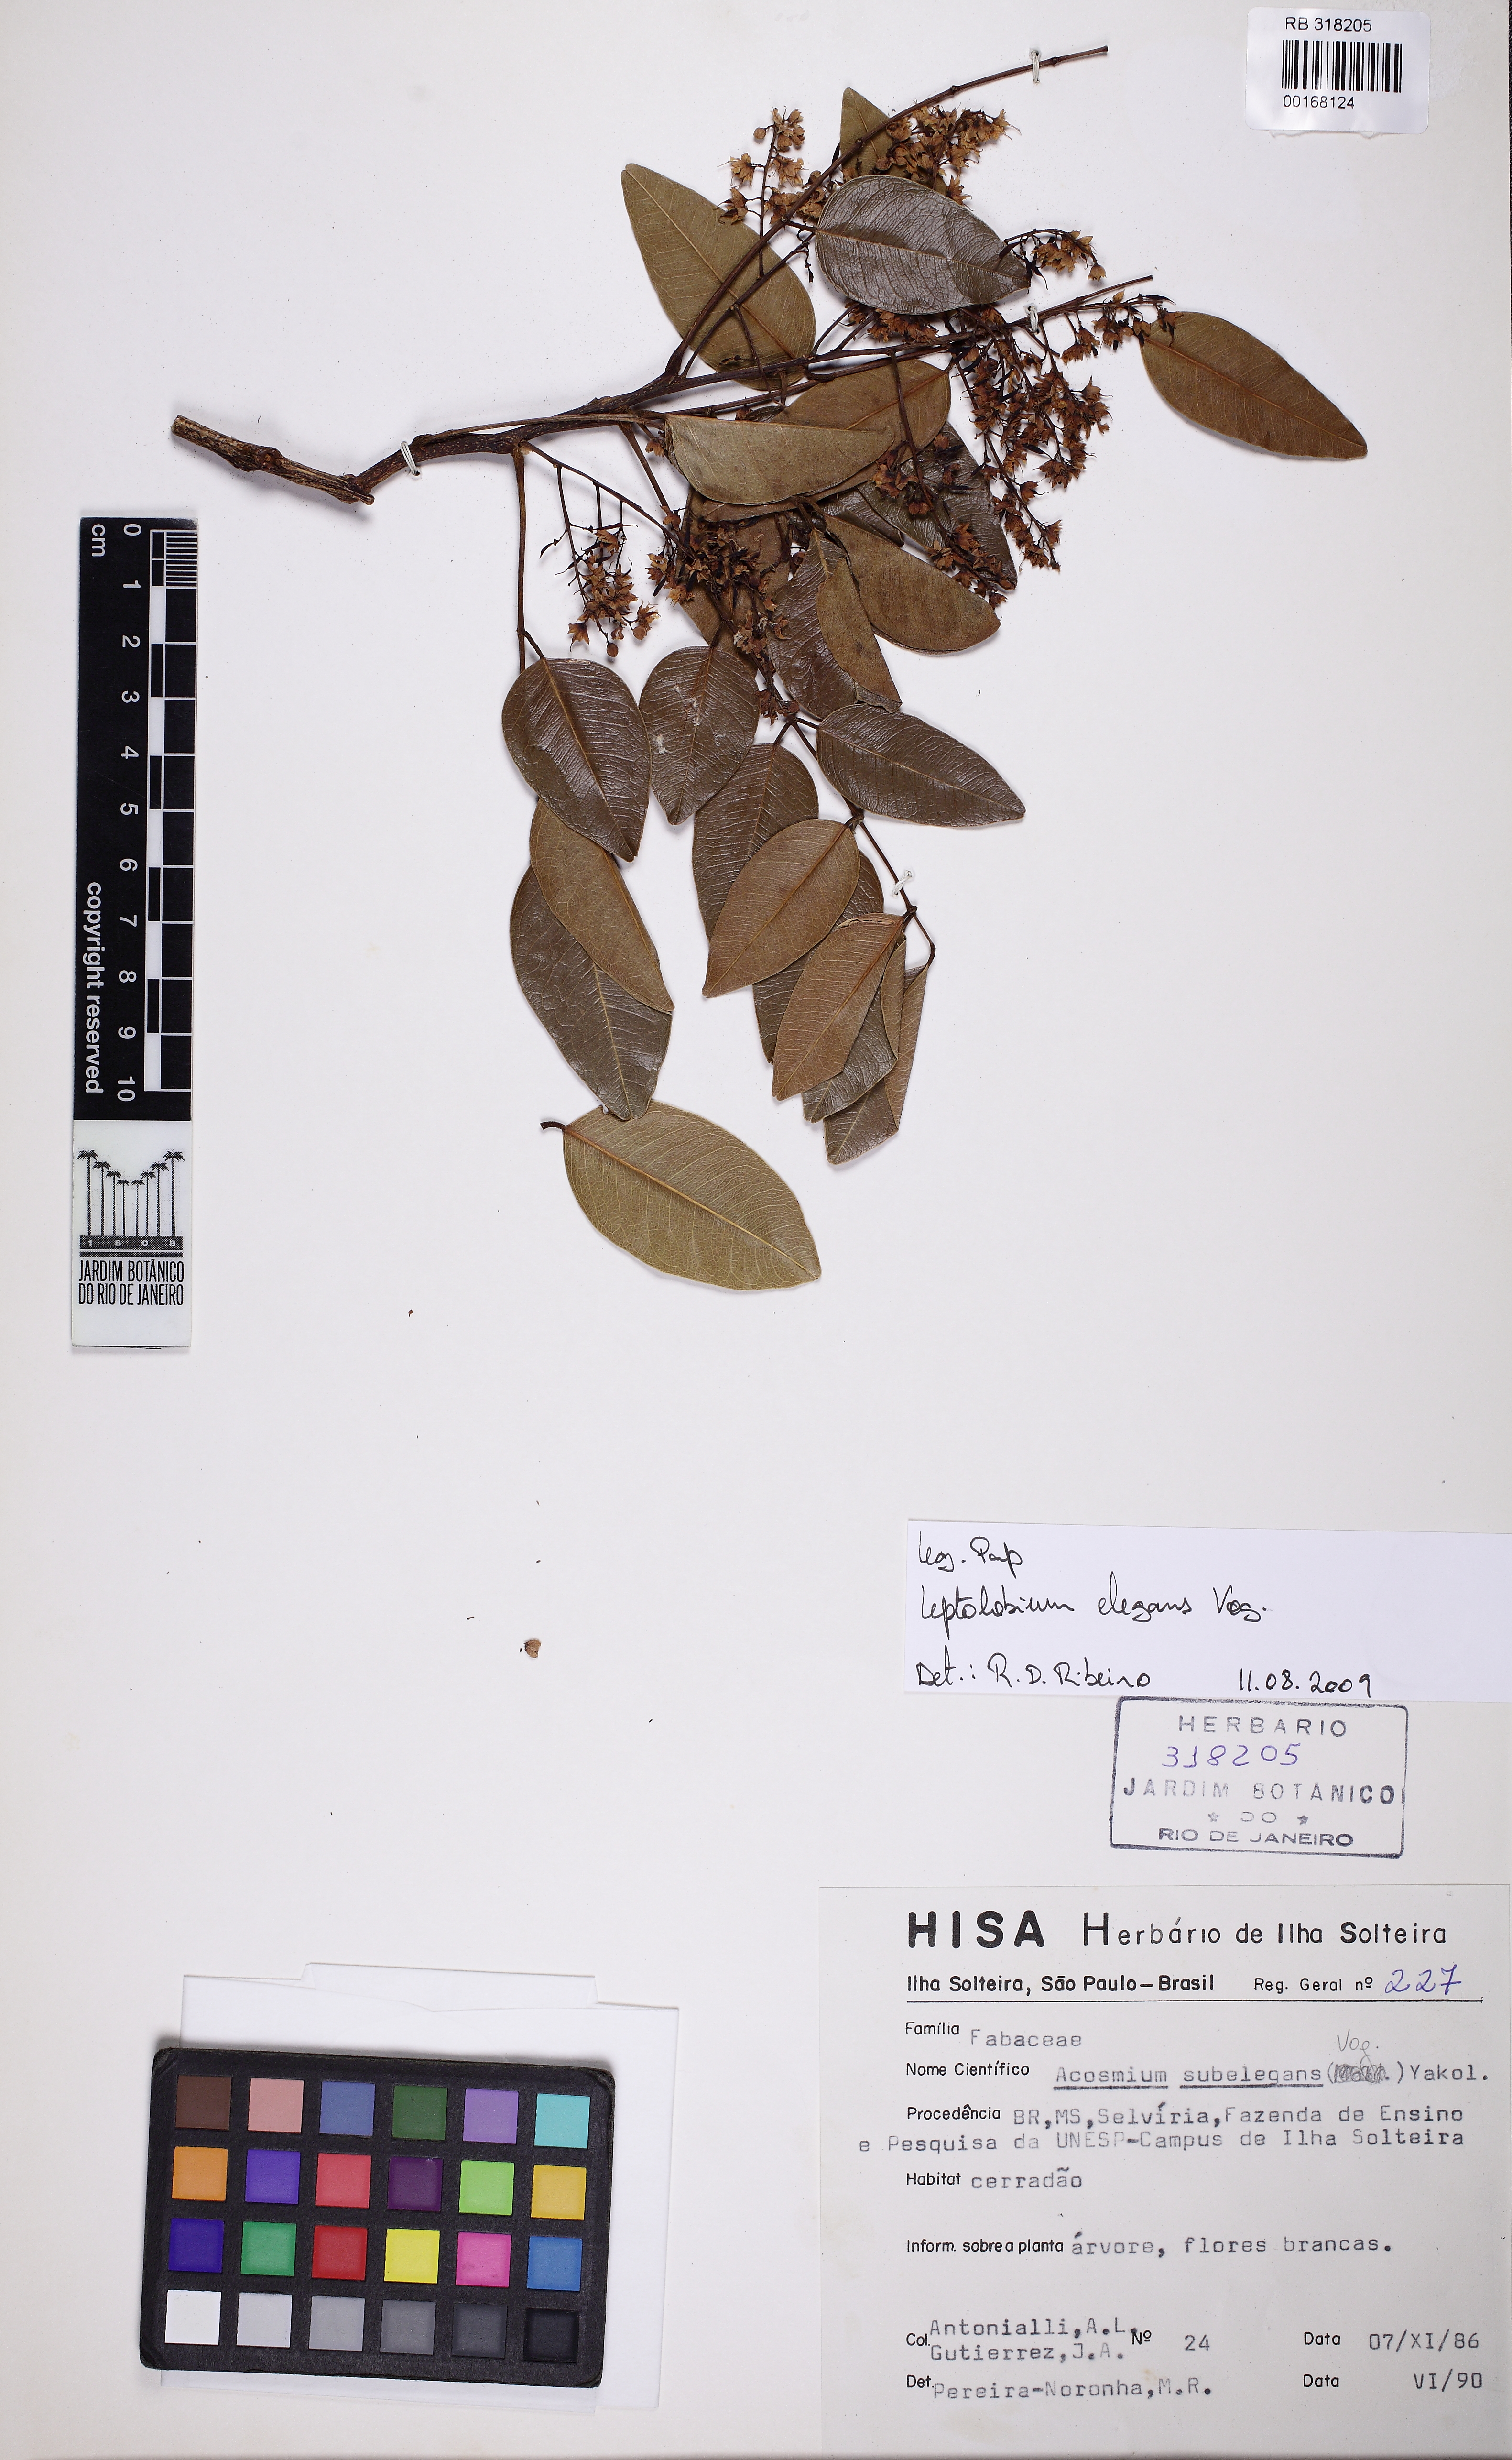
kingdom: Plantae
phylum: Tracheophyta
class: Magnoliopsida
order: Fabales
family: Fabaceae
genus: Leptolobium
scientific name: Leptolobium elegans
